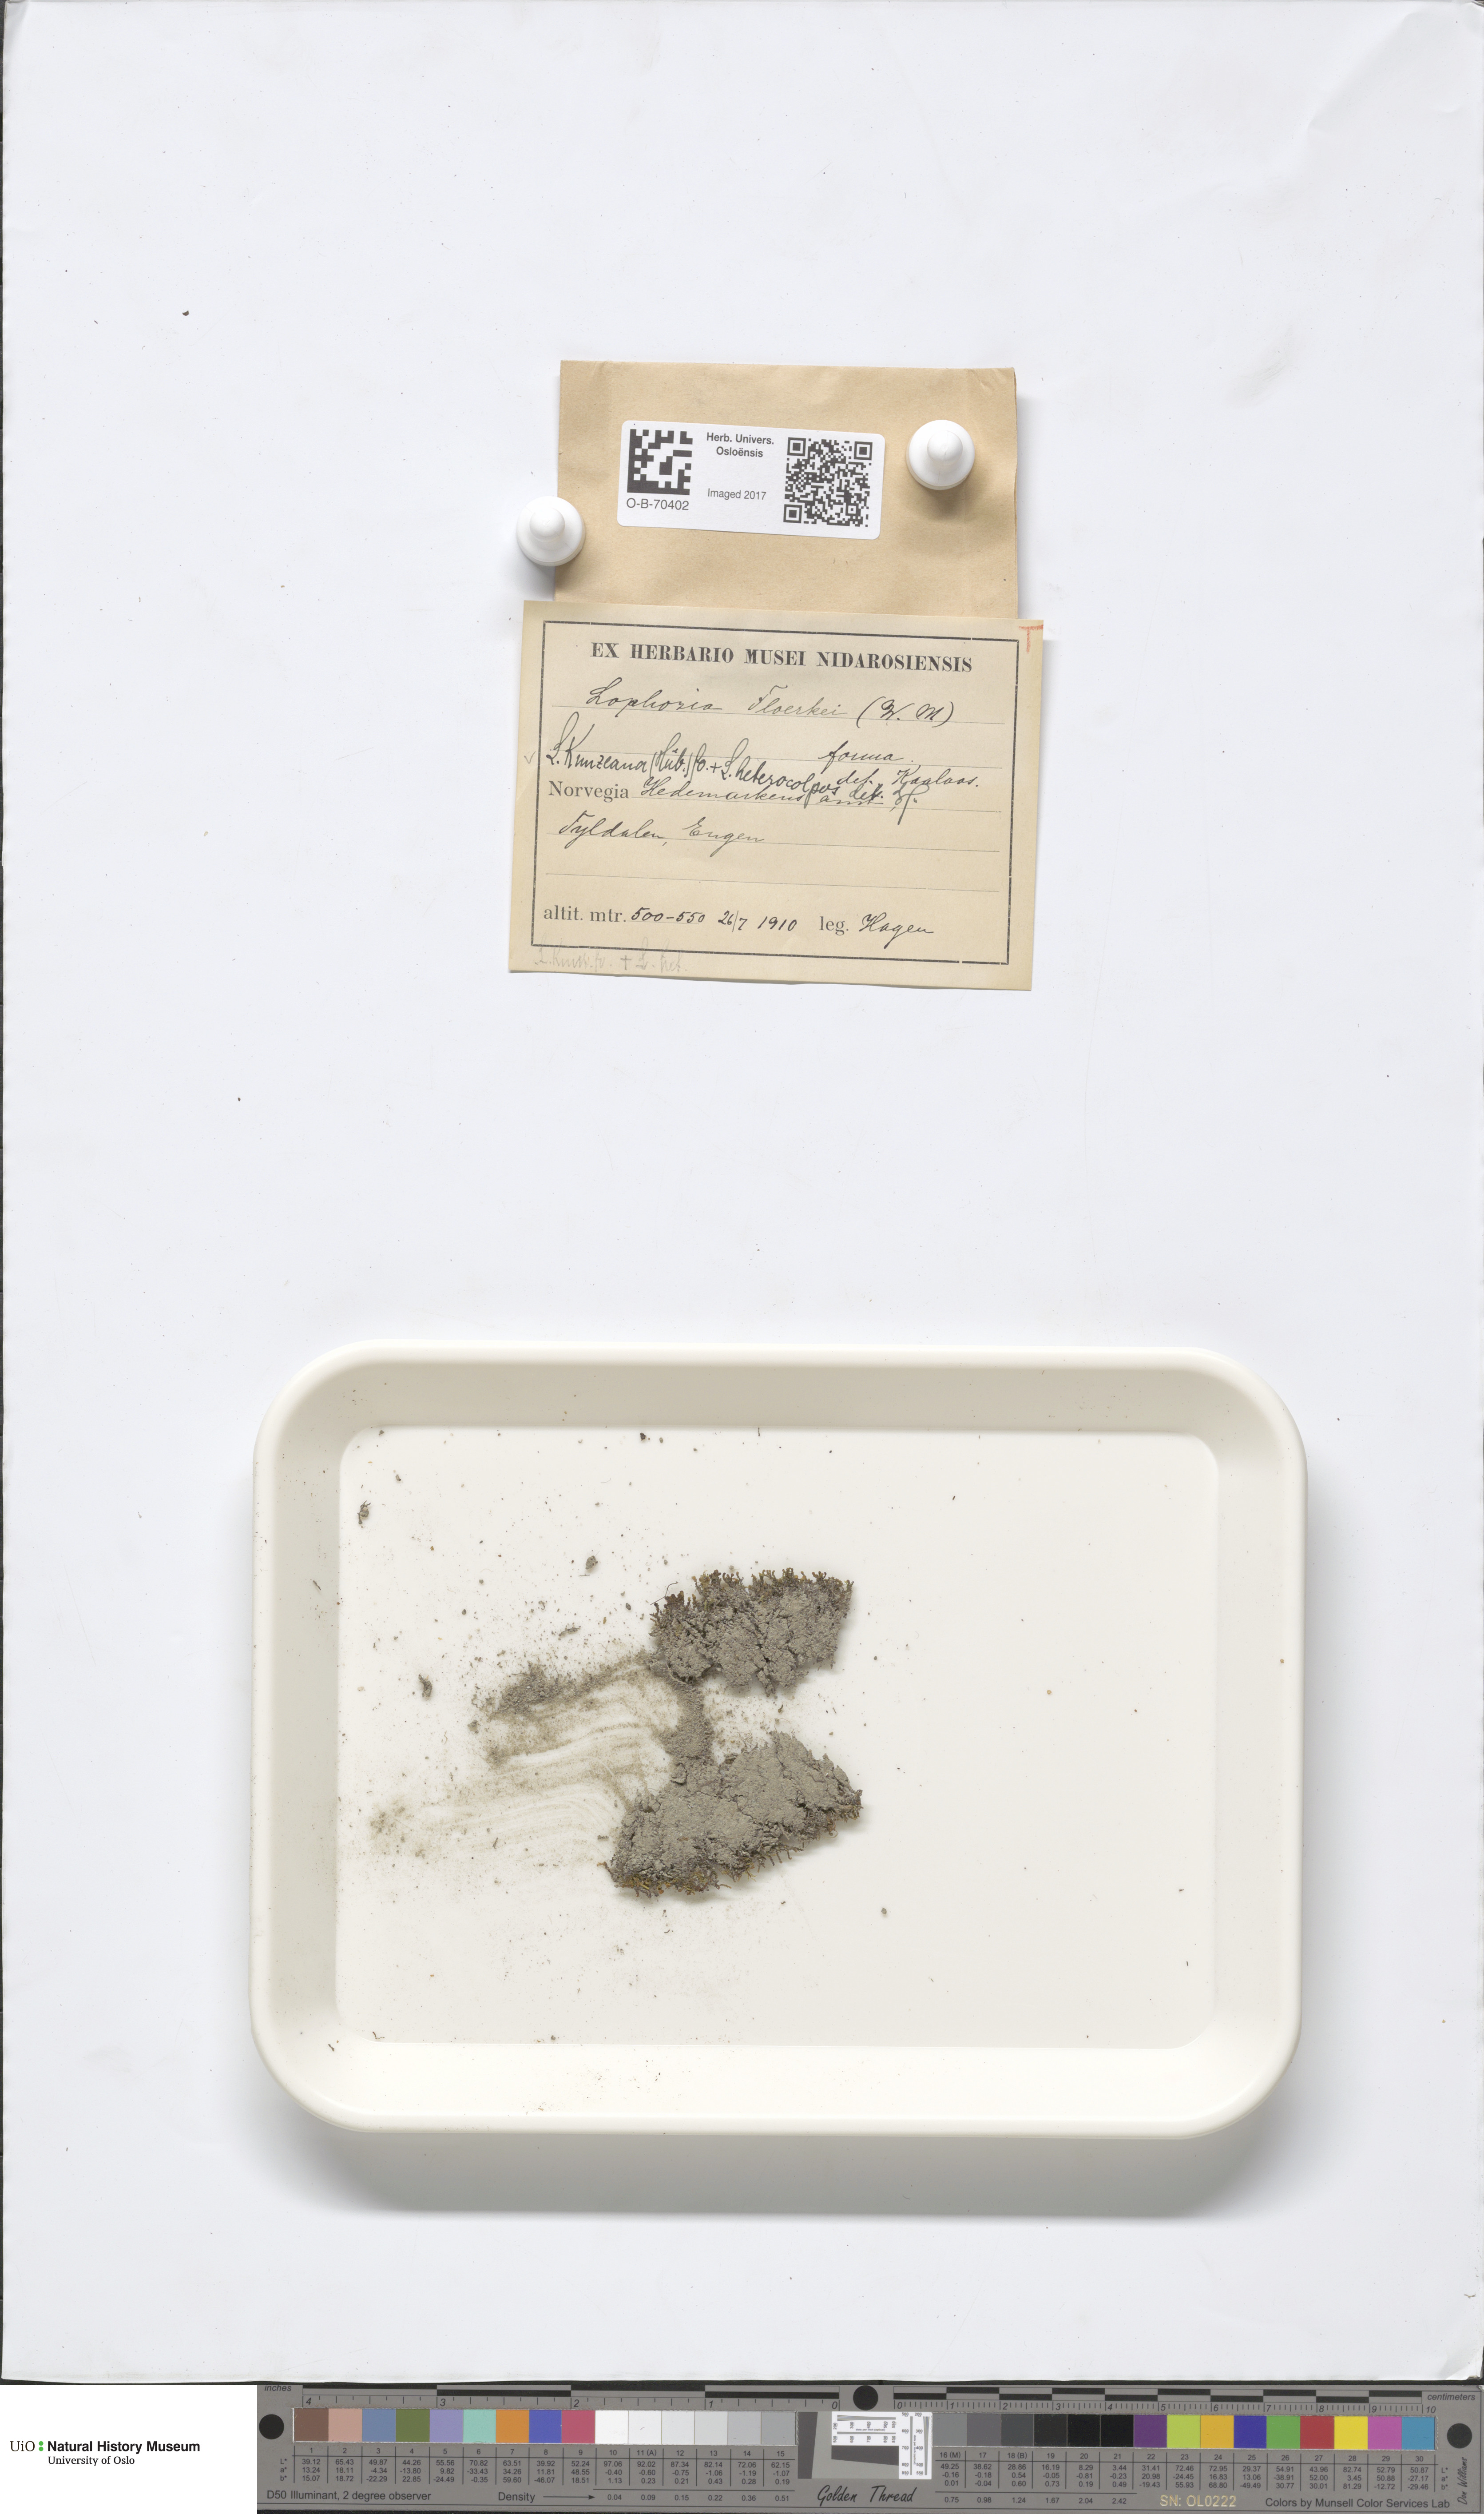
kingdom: Plantae
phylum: Marchantiophyta
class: Jungermanniopsida
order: Jungermanniales
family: Anastrophyllaceae
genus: Schljakovia
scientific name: Schljakovia kunzeana
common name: Kunze's pawwort
